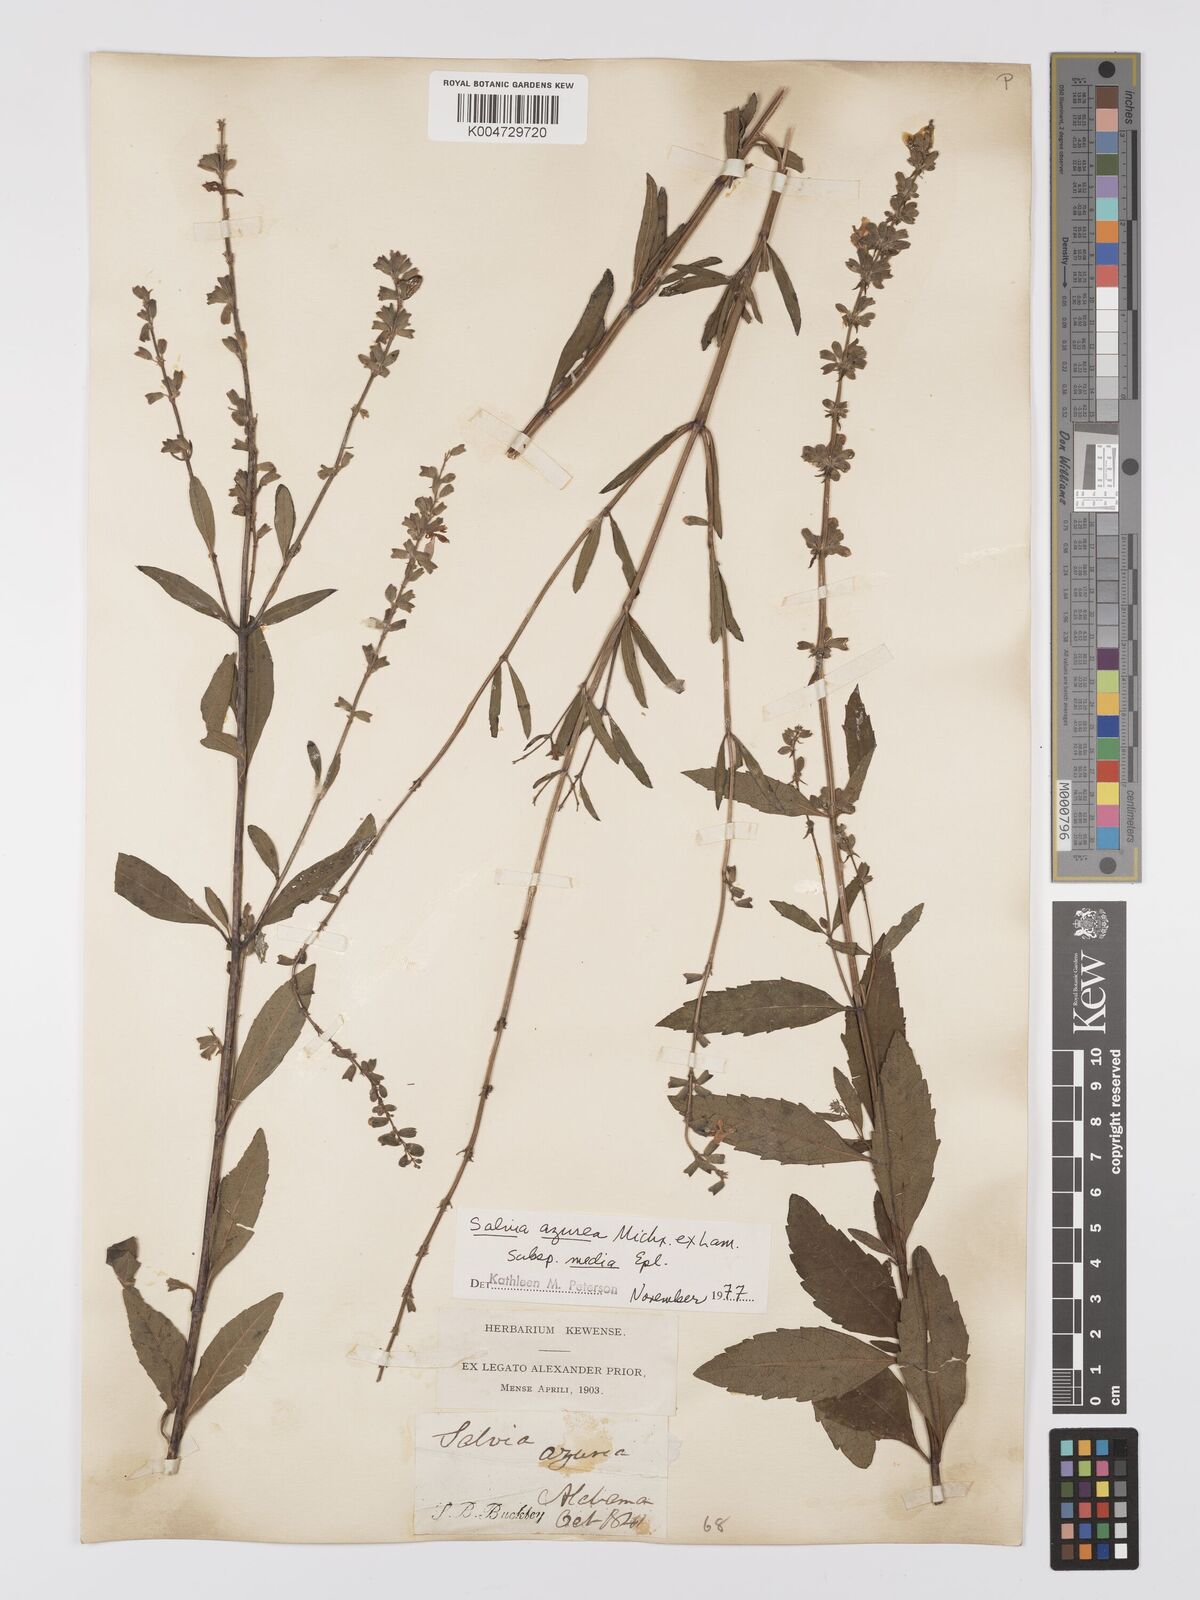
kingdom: Plantae
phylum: Tracheophyta
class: Magnoliopsida
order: Lamiales
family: Lamiaceae
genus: Salvia
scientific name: Salvia azurea
